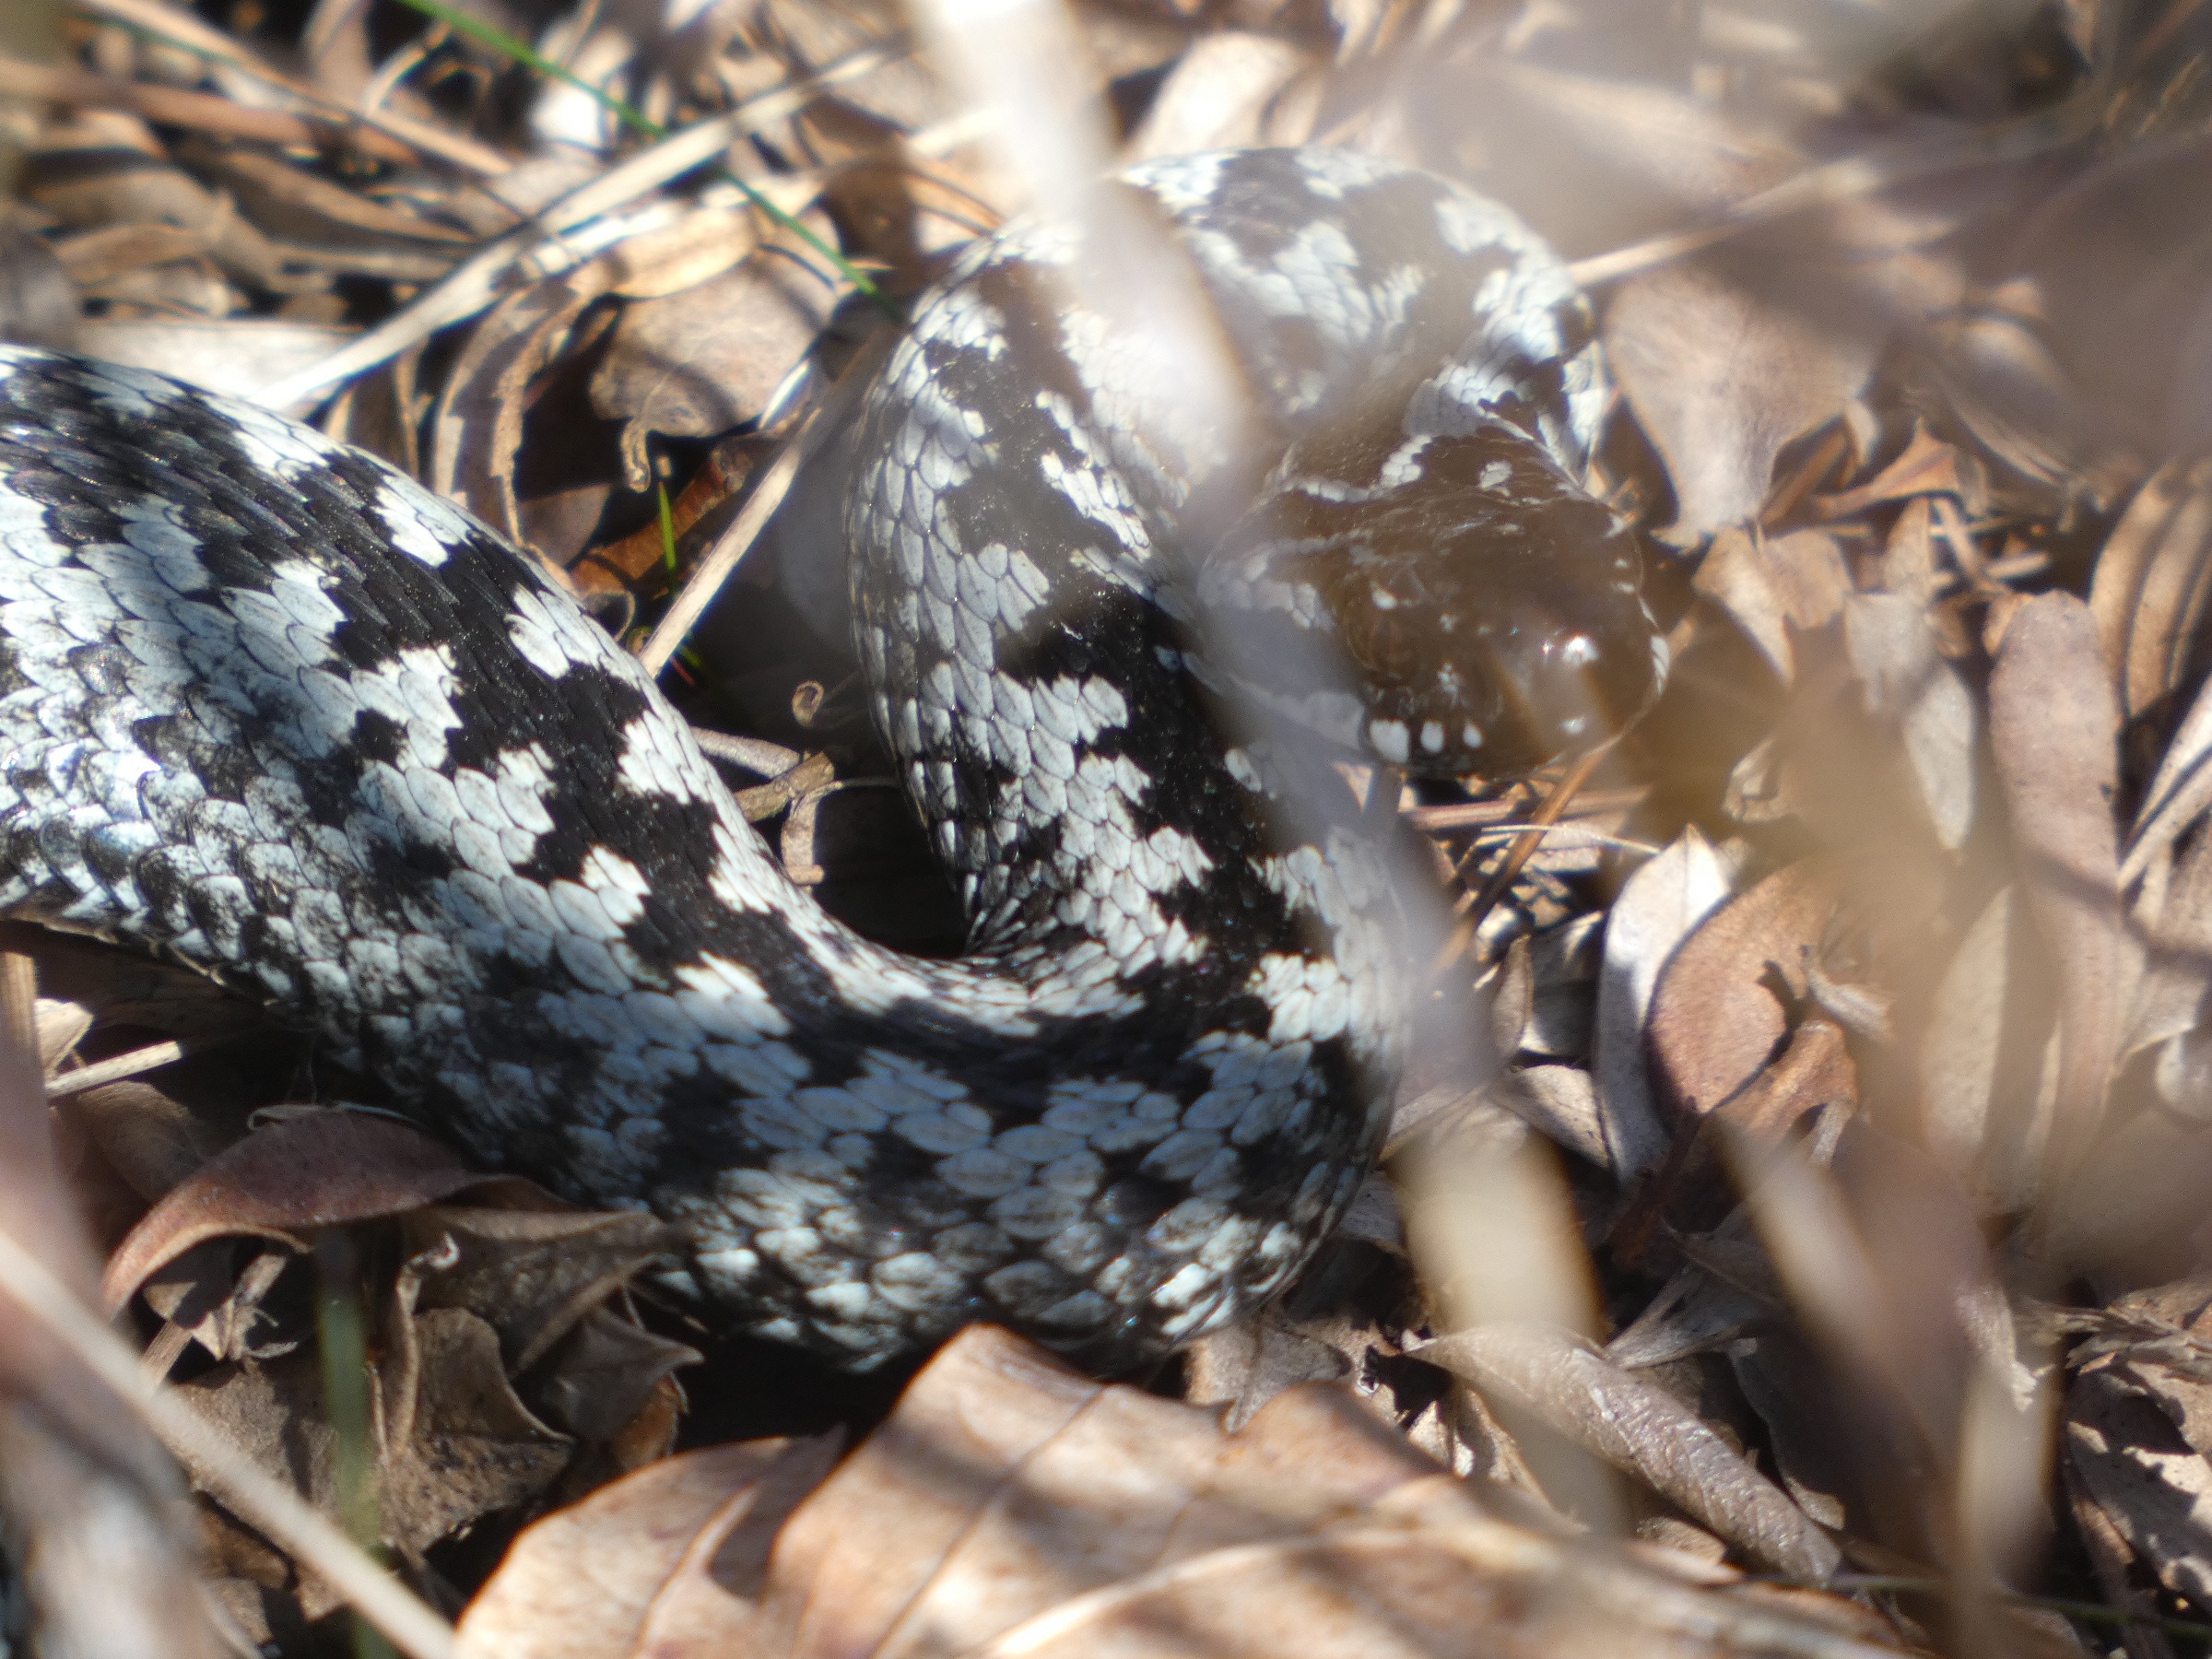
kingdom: Animalia
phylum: Chordata
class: Squamata
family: Viperidae
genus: Vipera
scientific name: Vipera berus
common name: Hugorm
